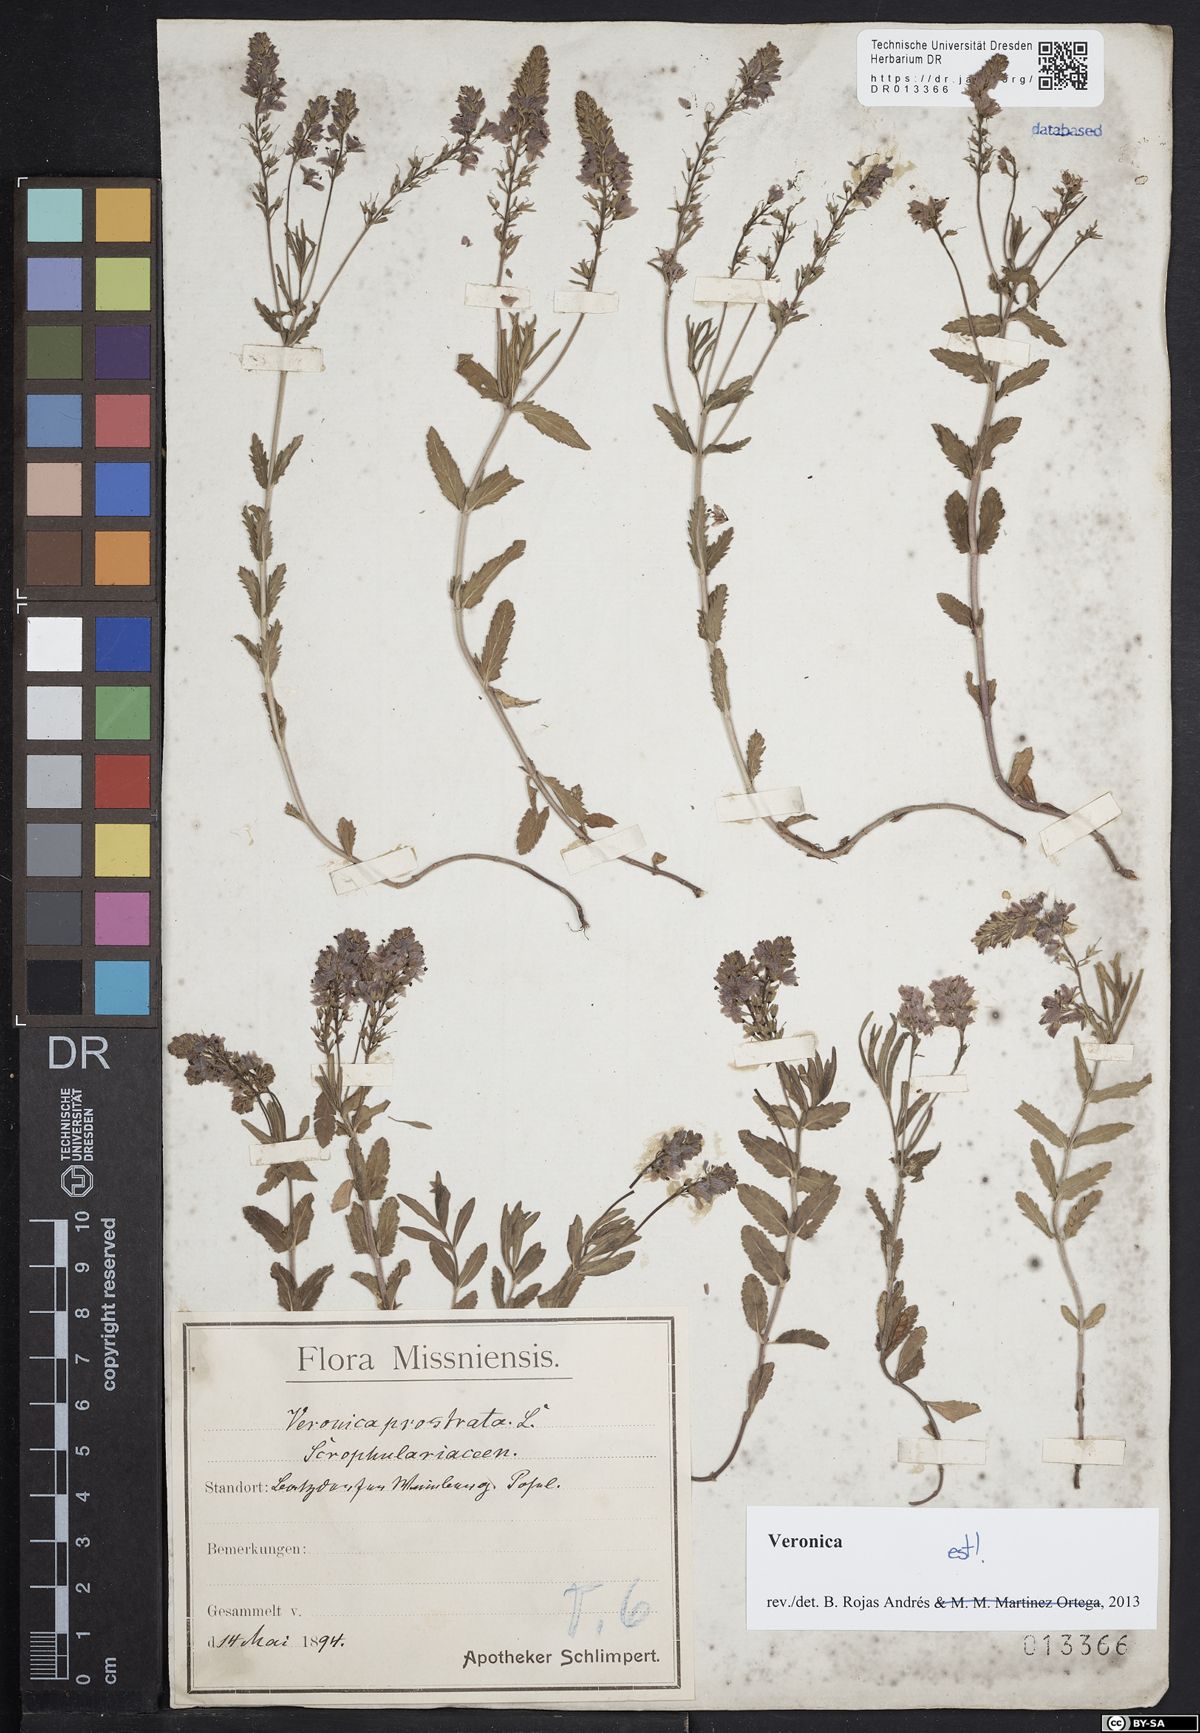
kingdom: Plantae
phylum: Tracheophyta
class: Magnoliopsida
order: Lamiales
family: Plantaginaceae
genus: Veronica
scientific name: Veronica prostrata
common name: Prostrate speedwell
